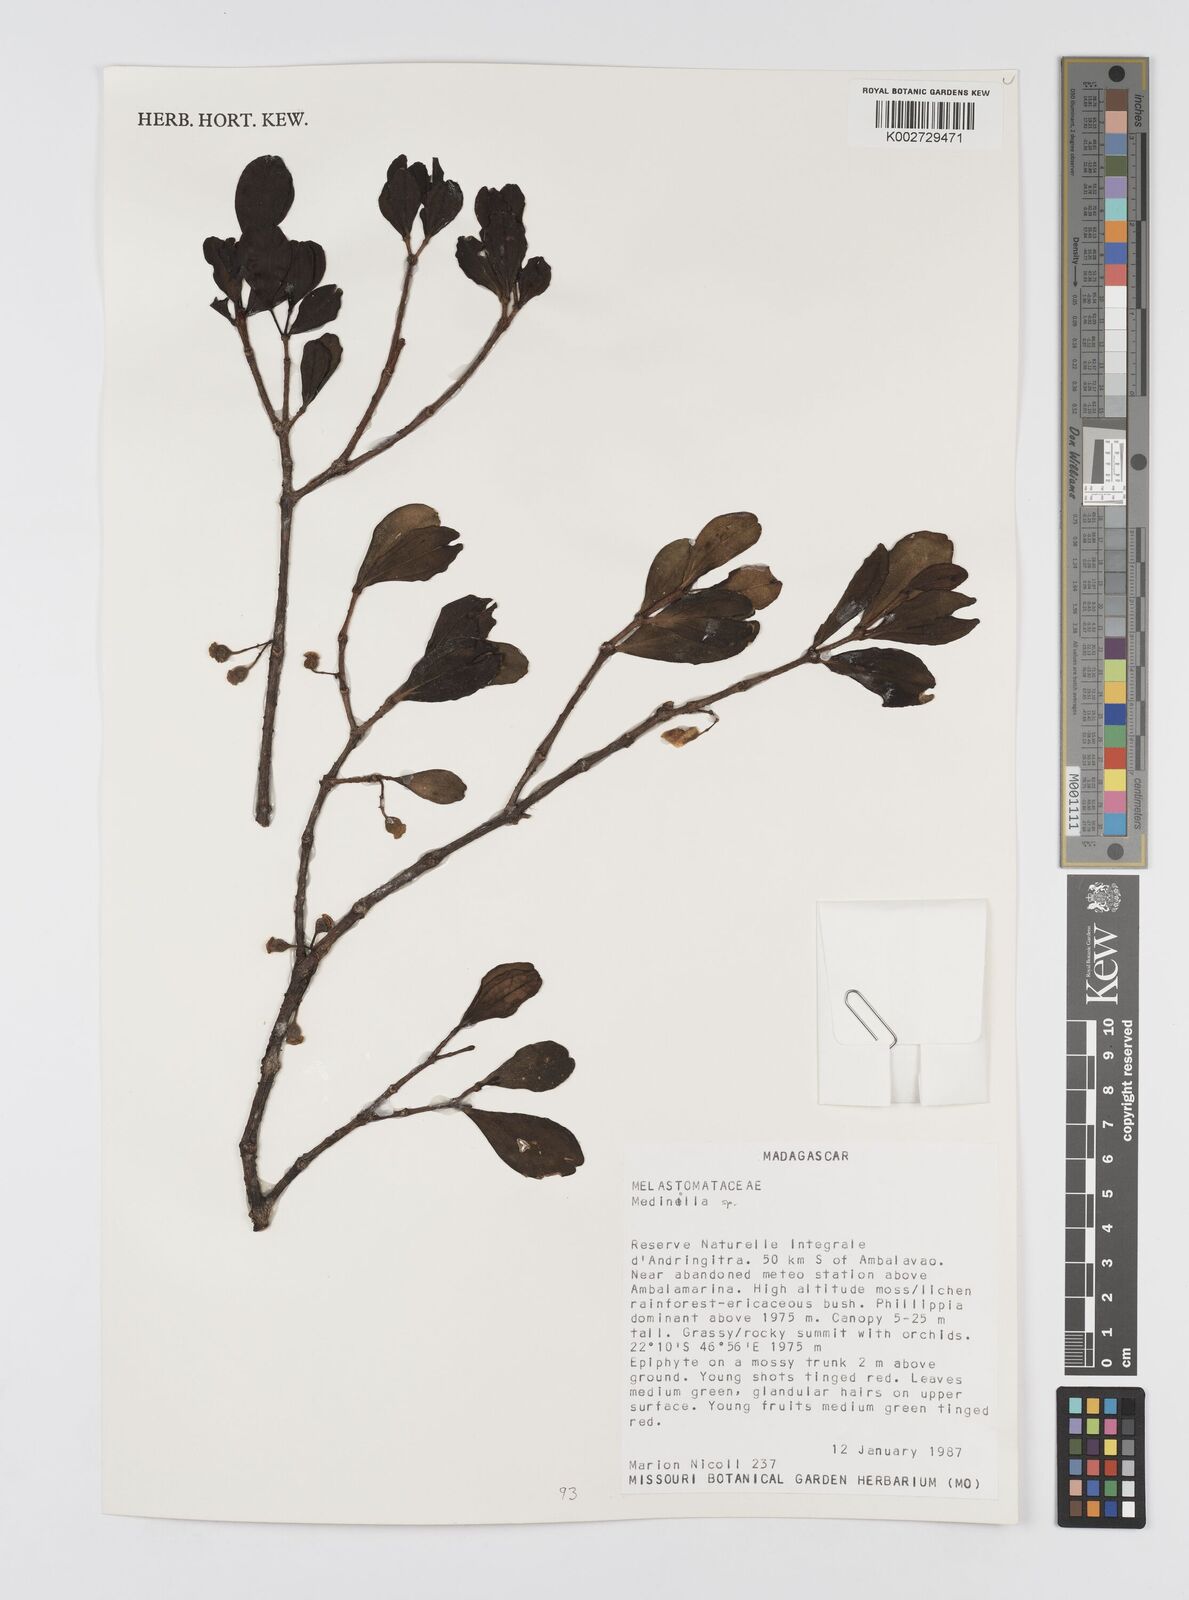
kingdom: Plantae
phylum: Tracheophyta
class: Magnoliopsida
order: Myrtales
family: Melastomataceae
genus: Medinilla
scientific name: Medinilla
